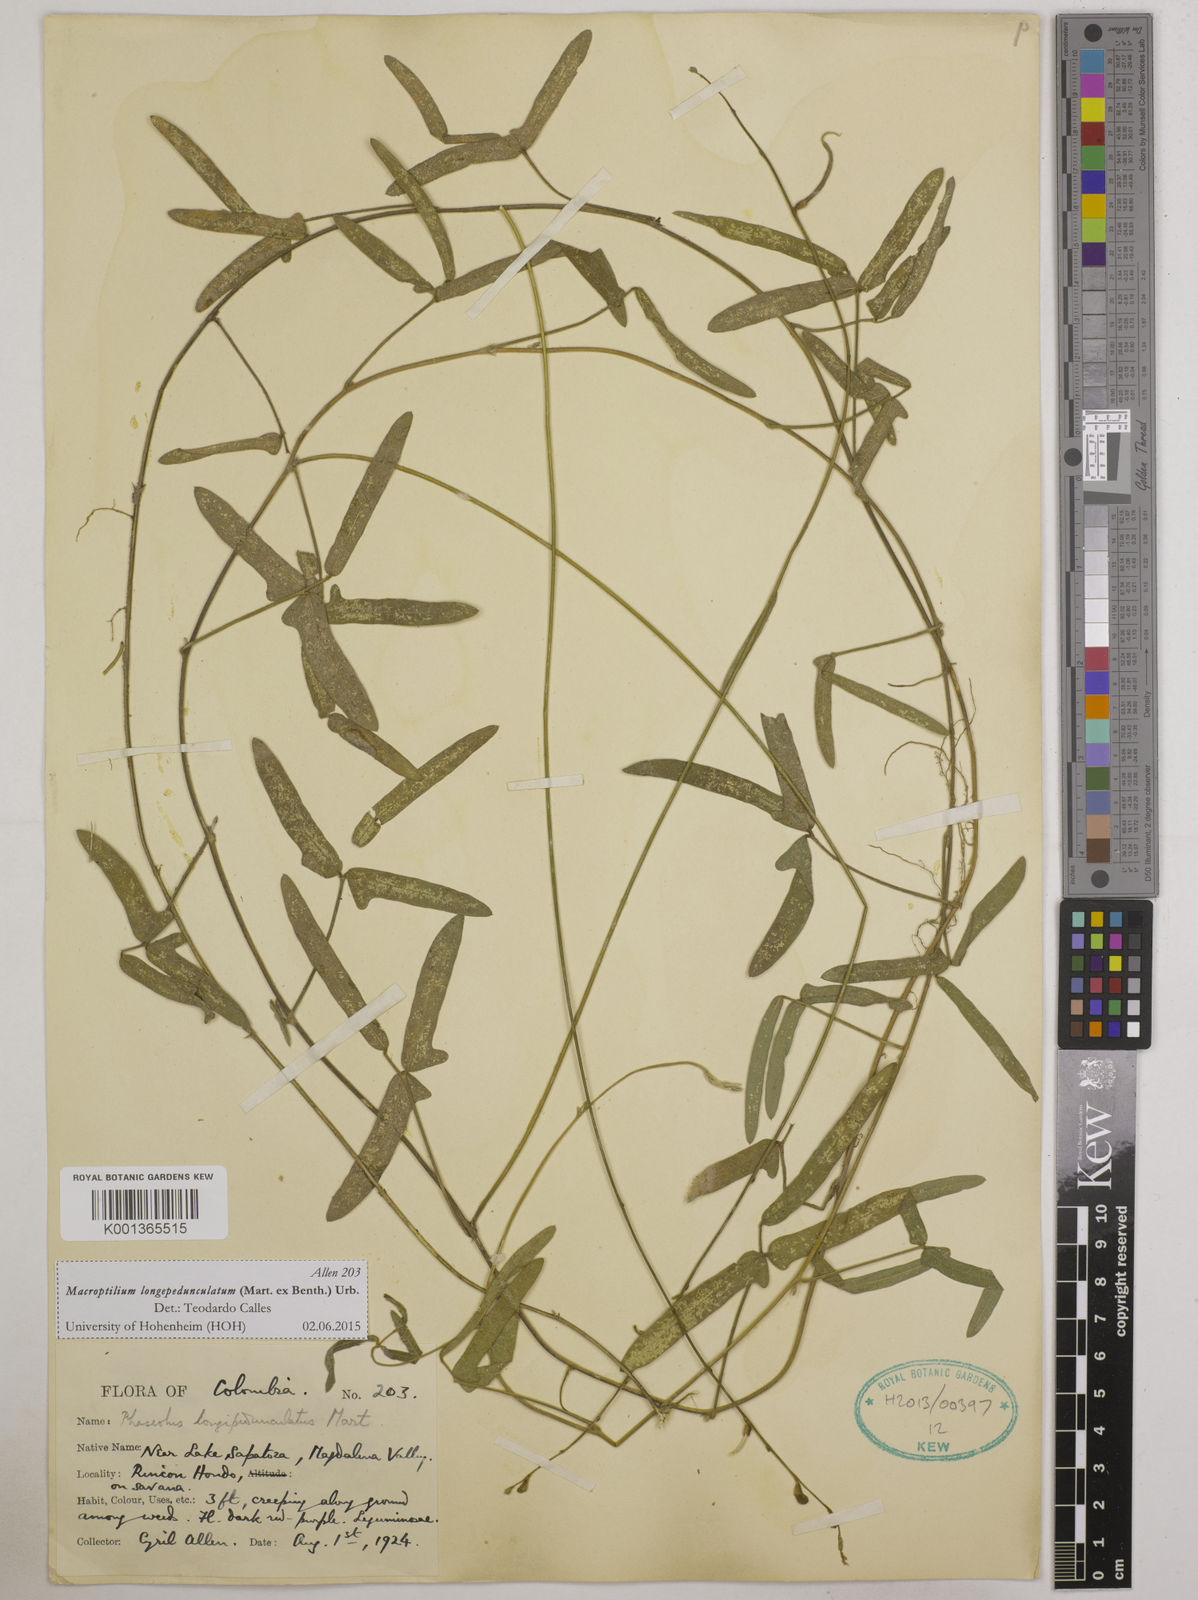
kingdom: Plantae
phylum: Tracheophyta
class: Magnoliopsida
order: Fabales
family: Fabaceae
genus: Macroptilium
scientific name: Macroptilium longepedunculatum
